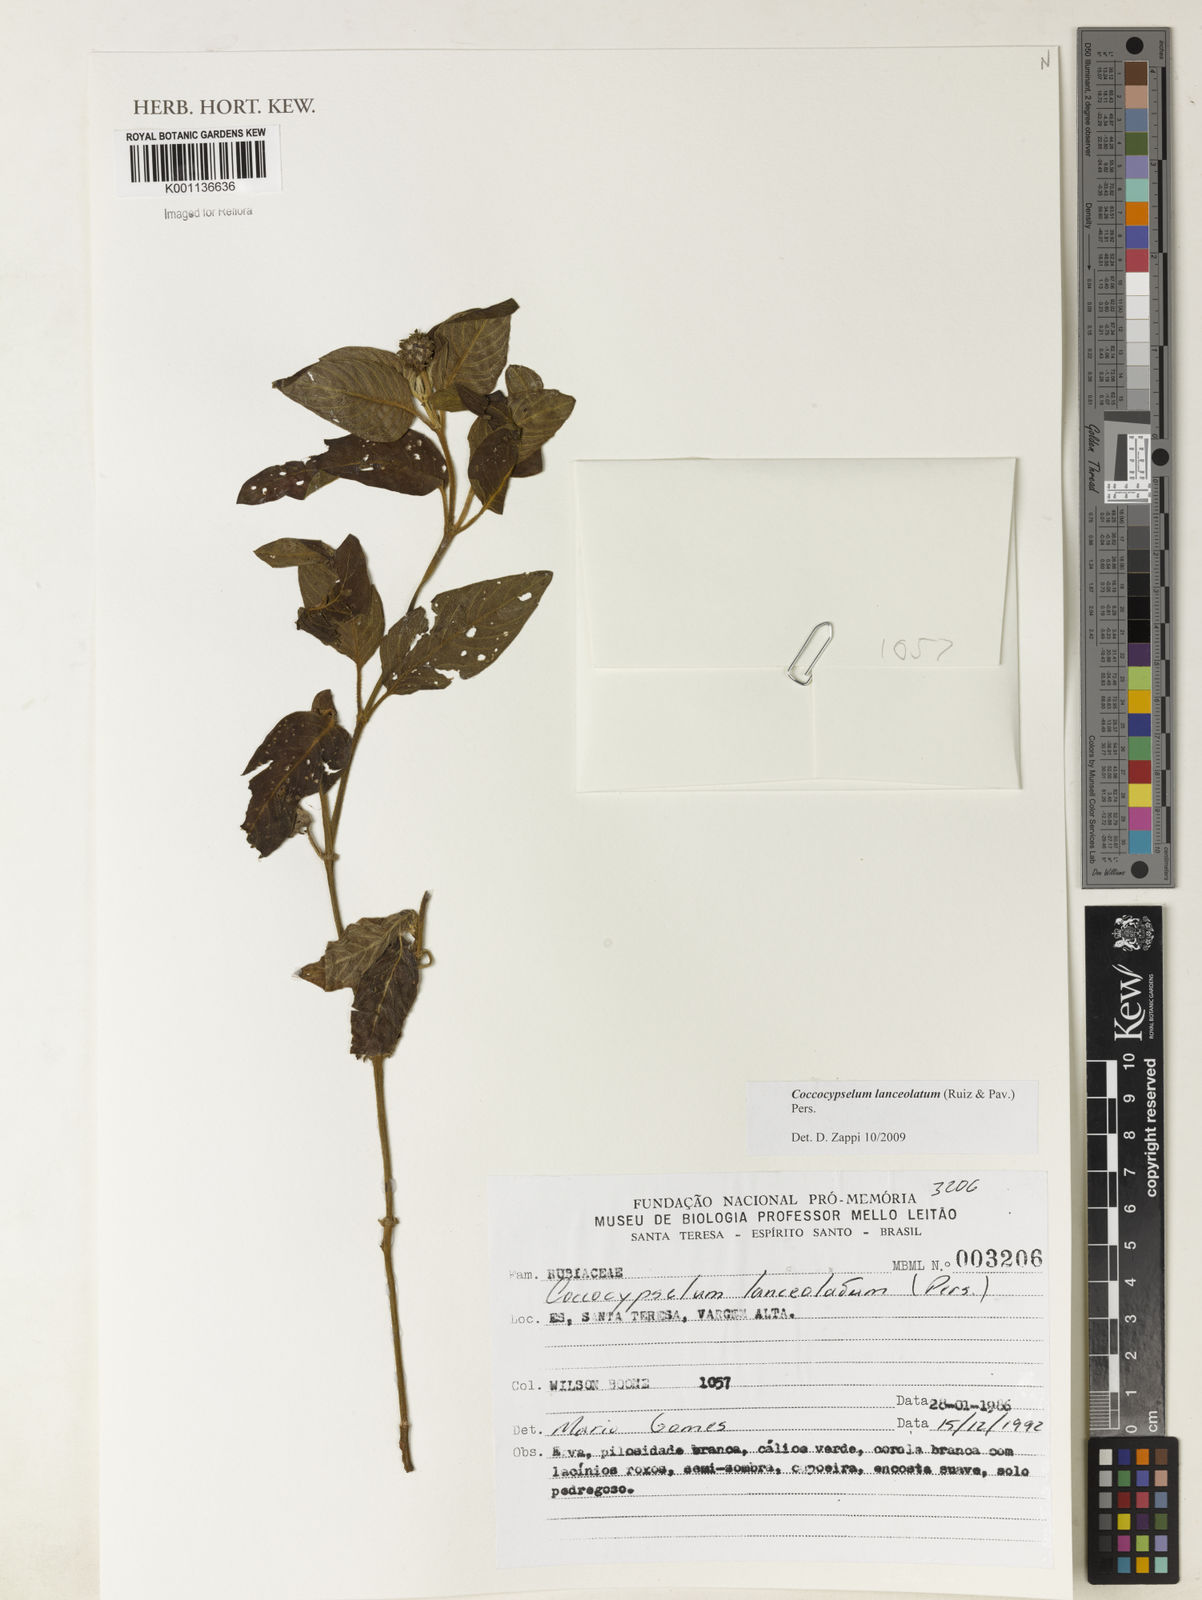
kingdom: Plantae
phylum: Tracheophyta
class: Magnoliopsida
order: Gentianales
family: Rubiaceae
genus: Coccocypselum
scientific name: Coccocypselum lanceolatum
